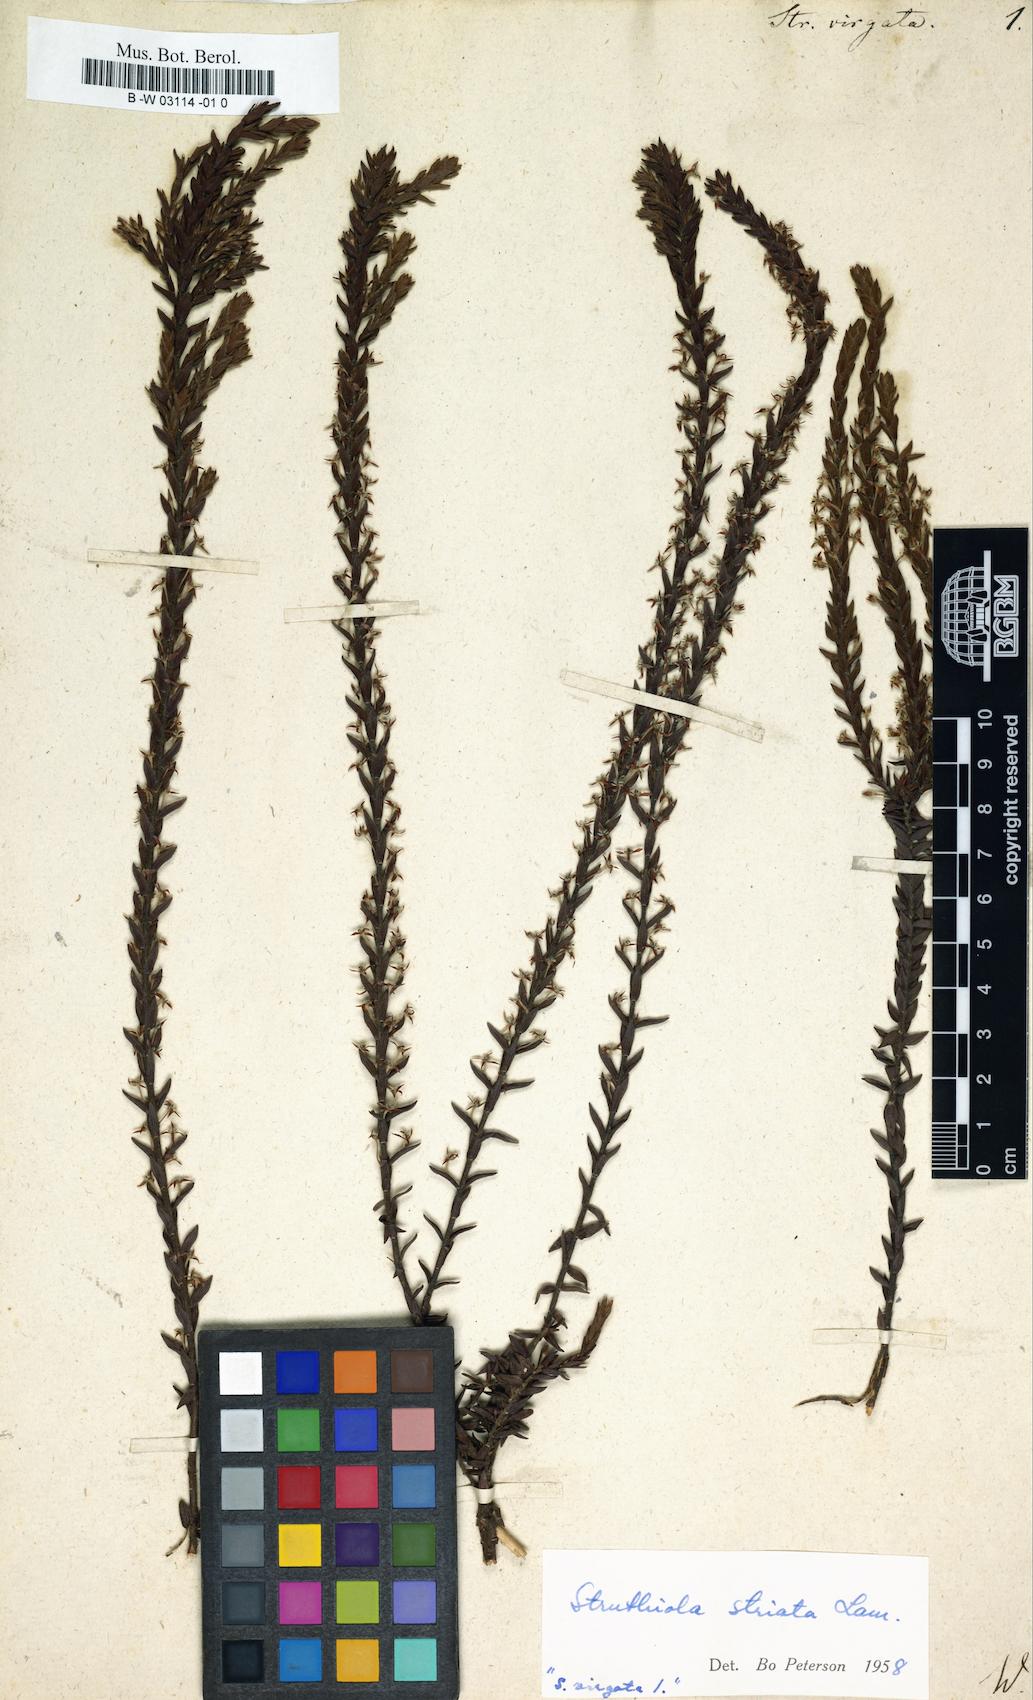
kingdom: Plantae
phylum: Tracheophyta
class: Magnoliopsida
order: Malvales
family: Thymelaeaceae
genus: Struthiola
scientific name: Struthiola
